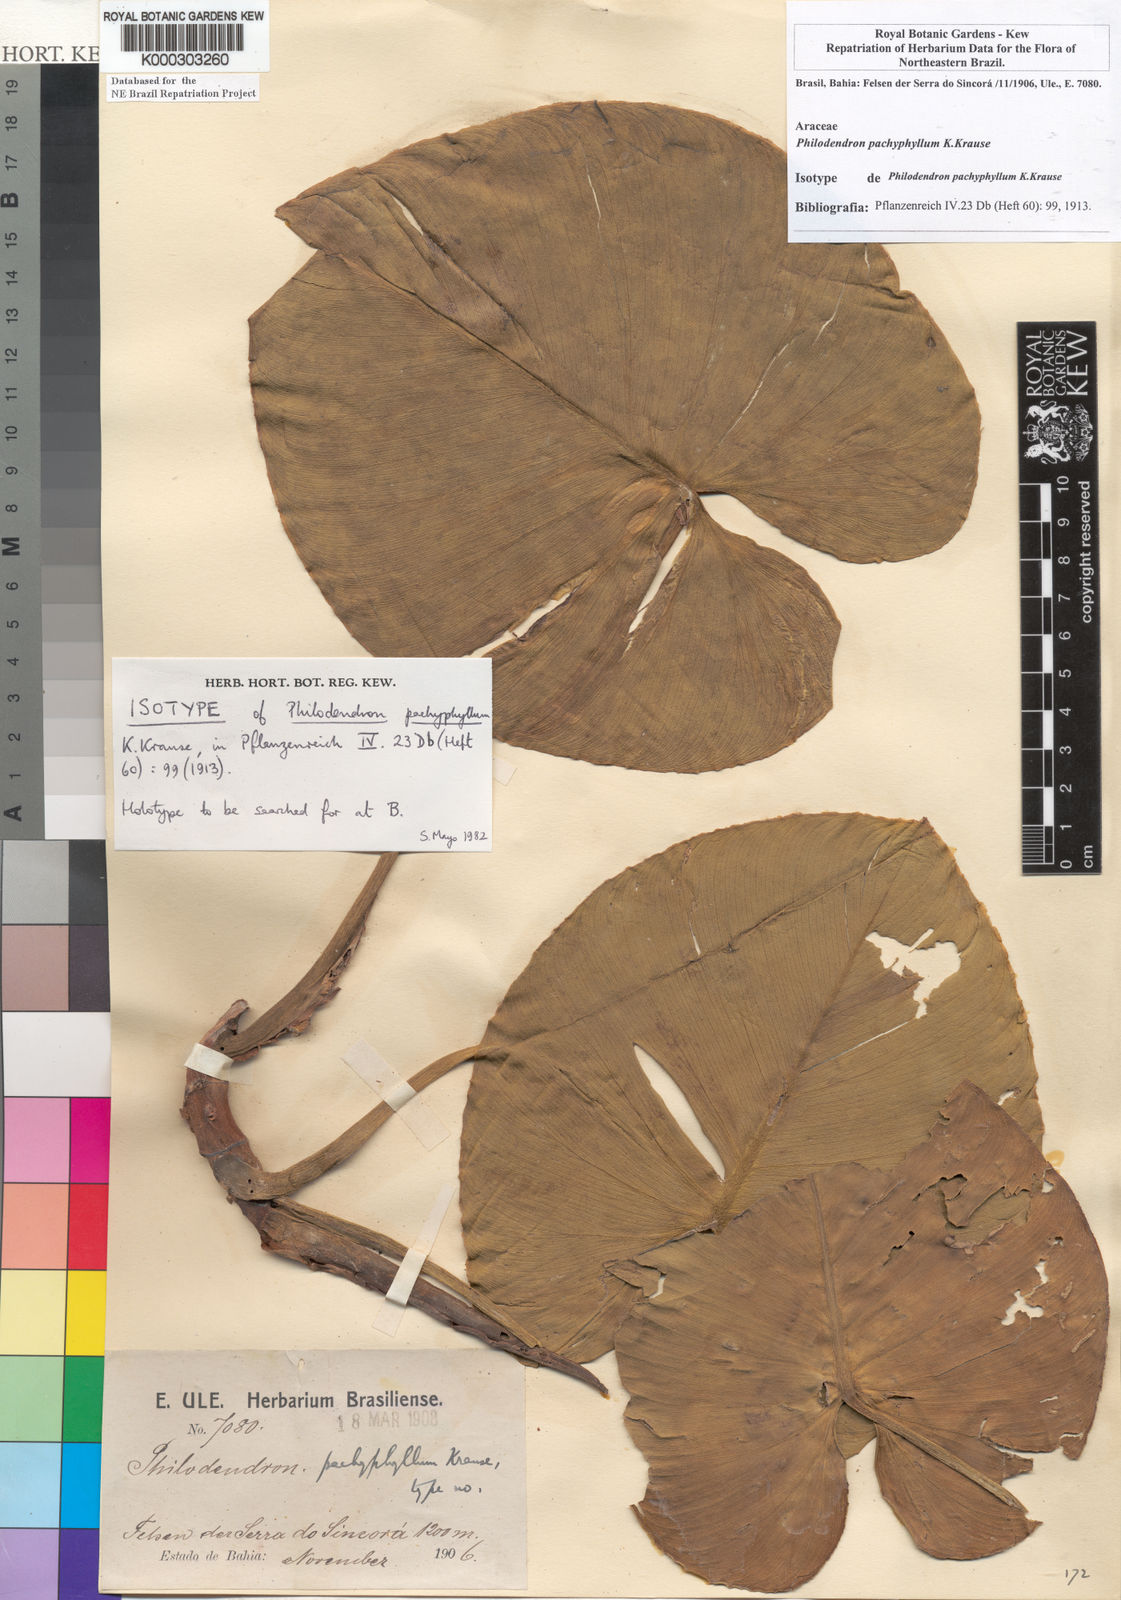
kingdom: Plantae
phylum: Tracheophyta
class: Liliopsida
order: Alismatales
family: Araceae
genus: Philodendron
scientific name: Philodendron pachyphyllum
